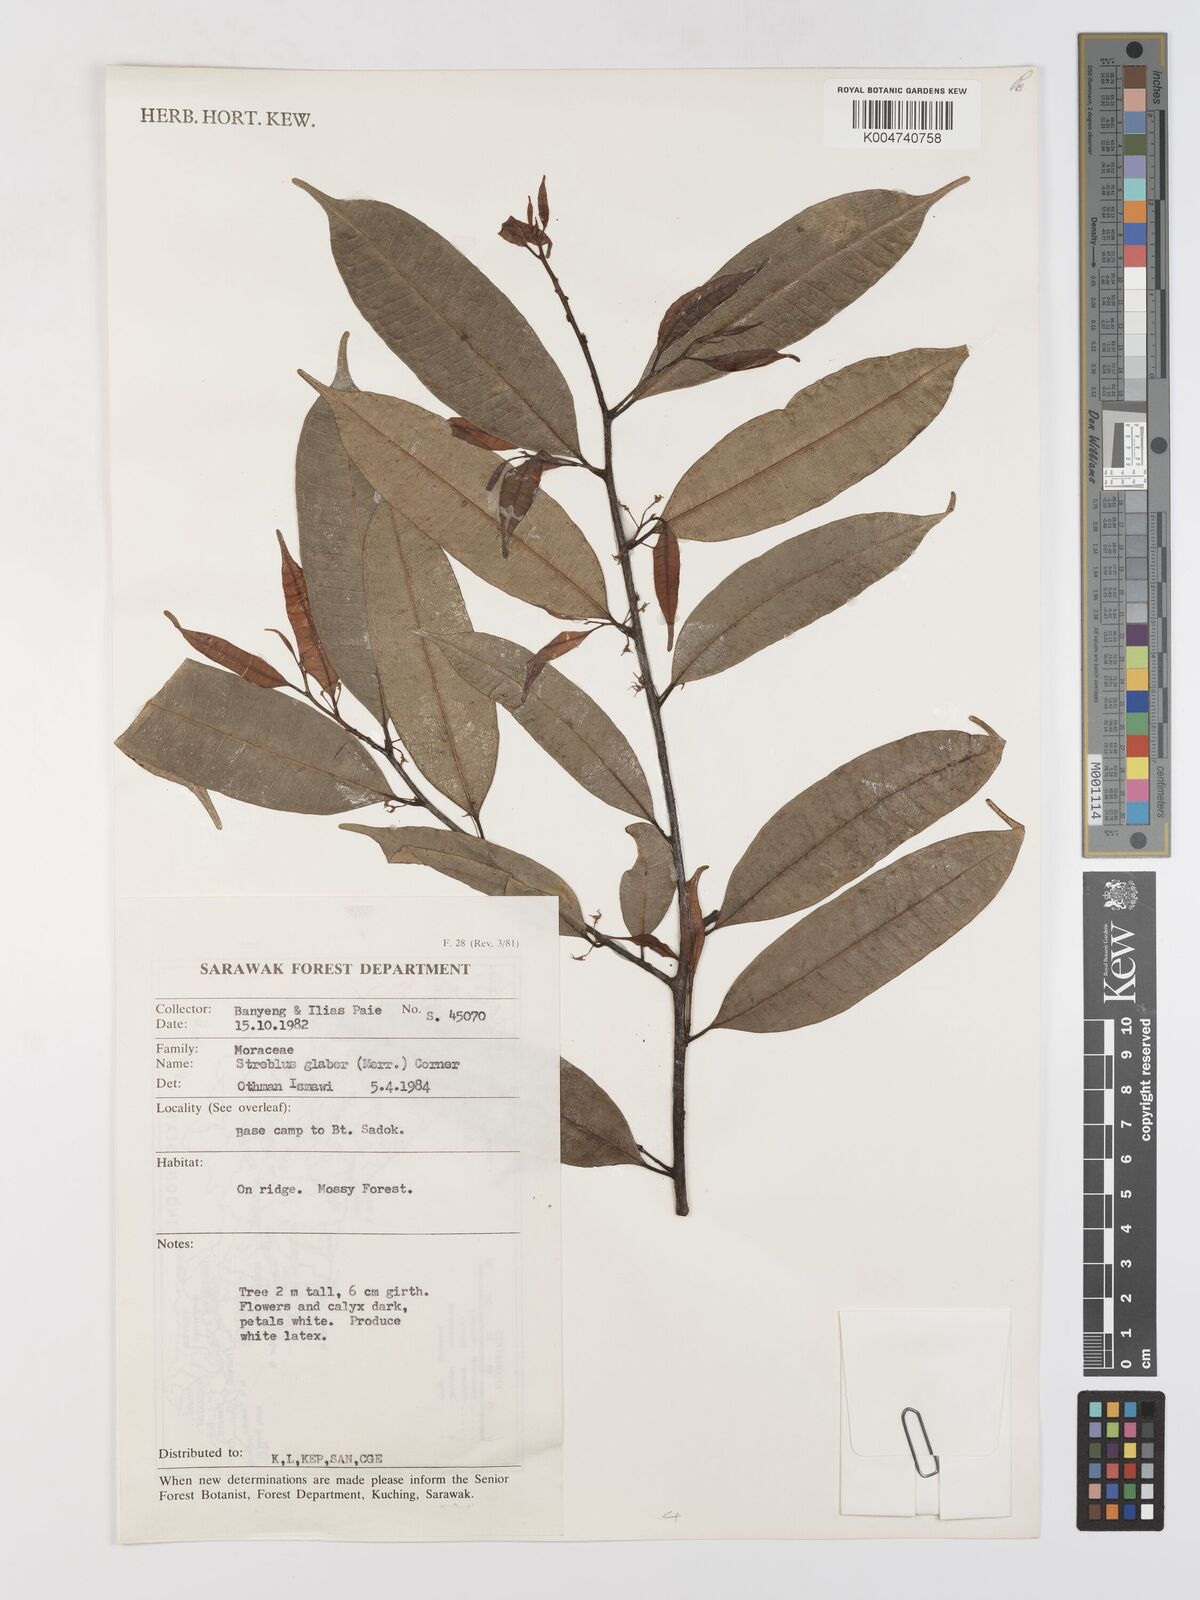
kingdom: Plantae
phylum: Tracheophyta
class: Magnoliopsida
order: Rosales
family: Moraceae
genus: Paratrophis
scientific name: Paratrophis glabra
